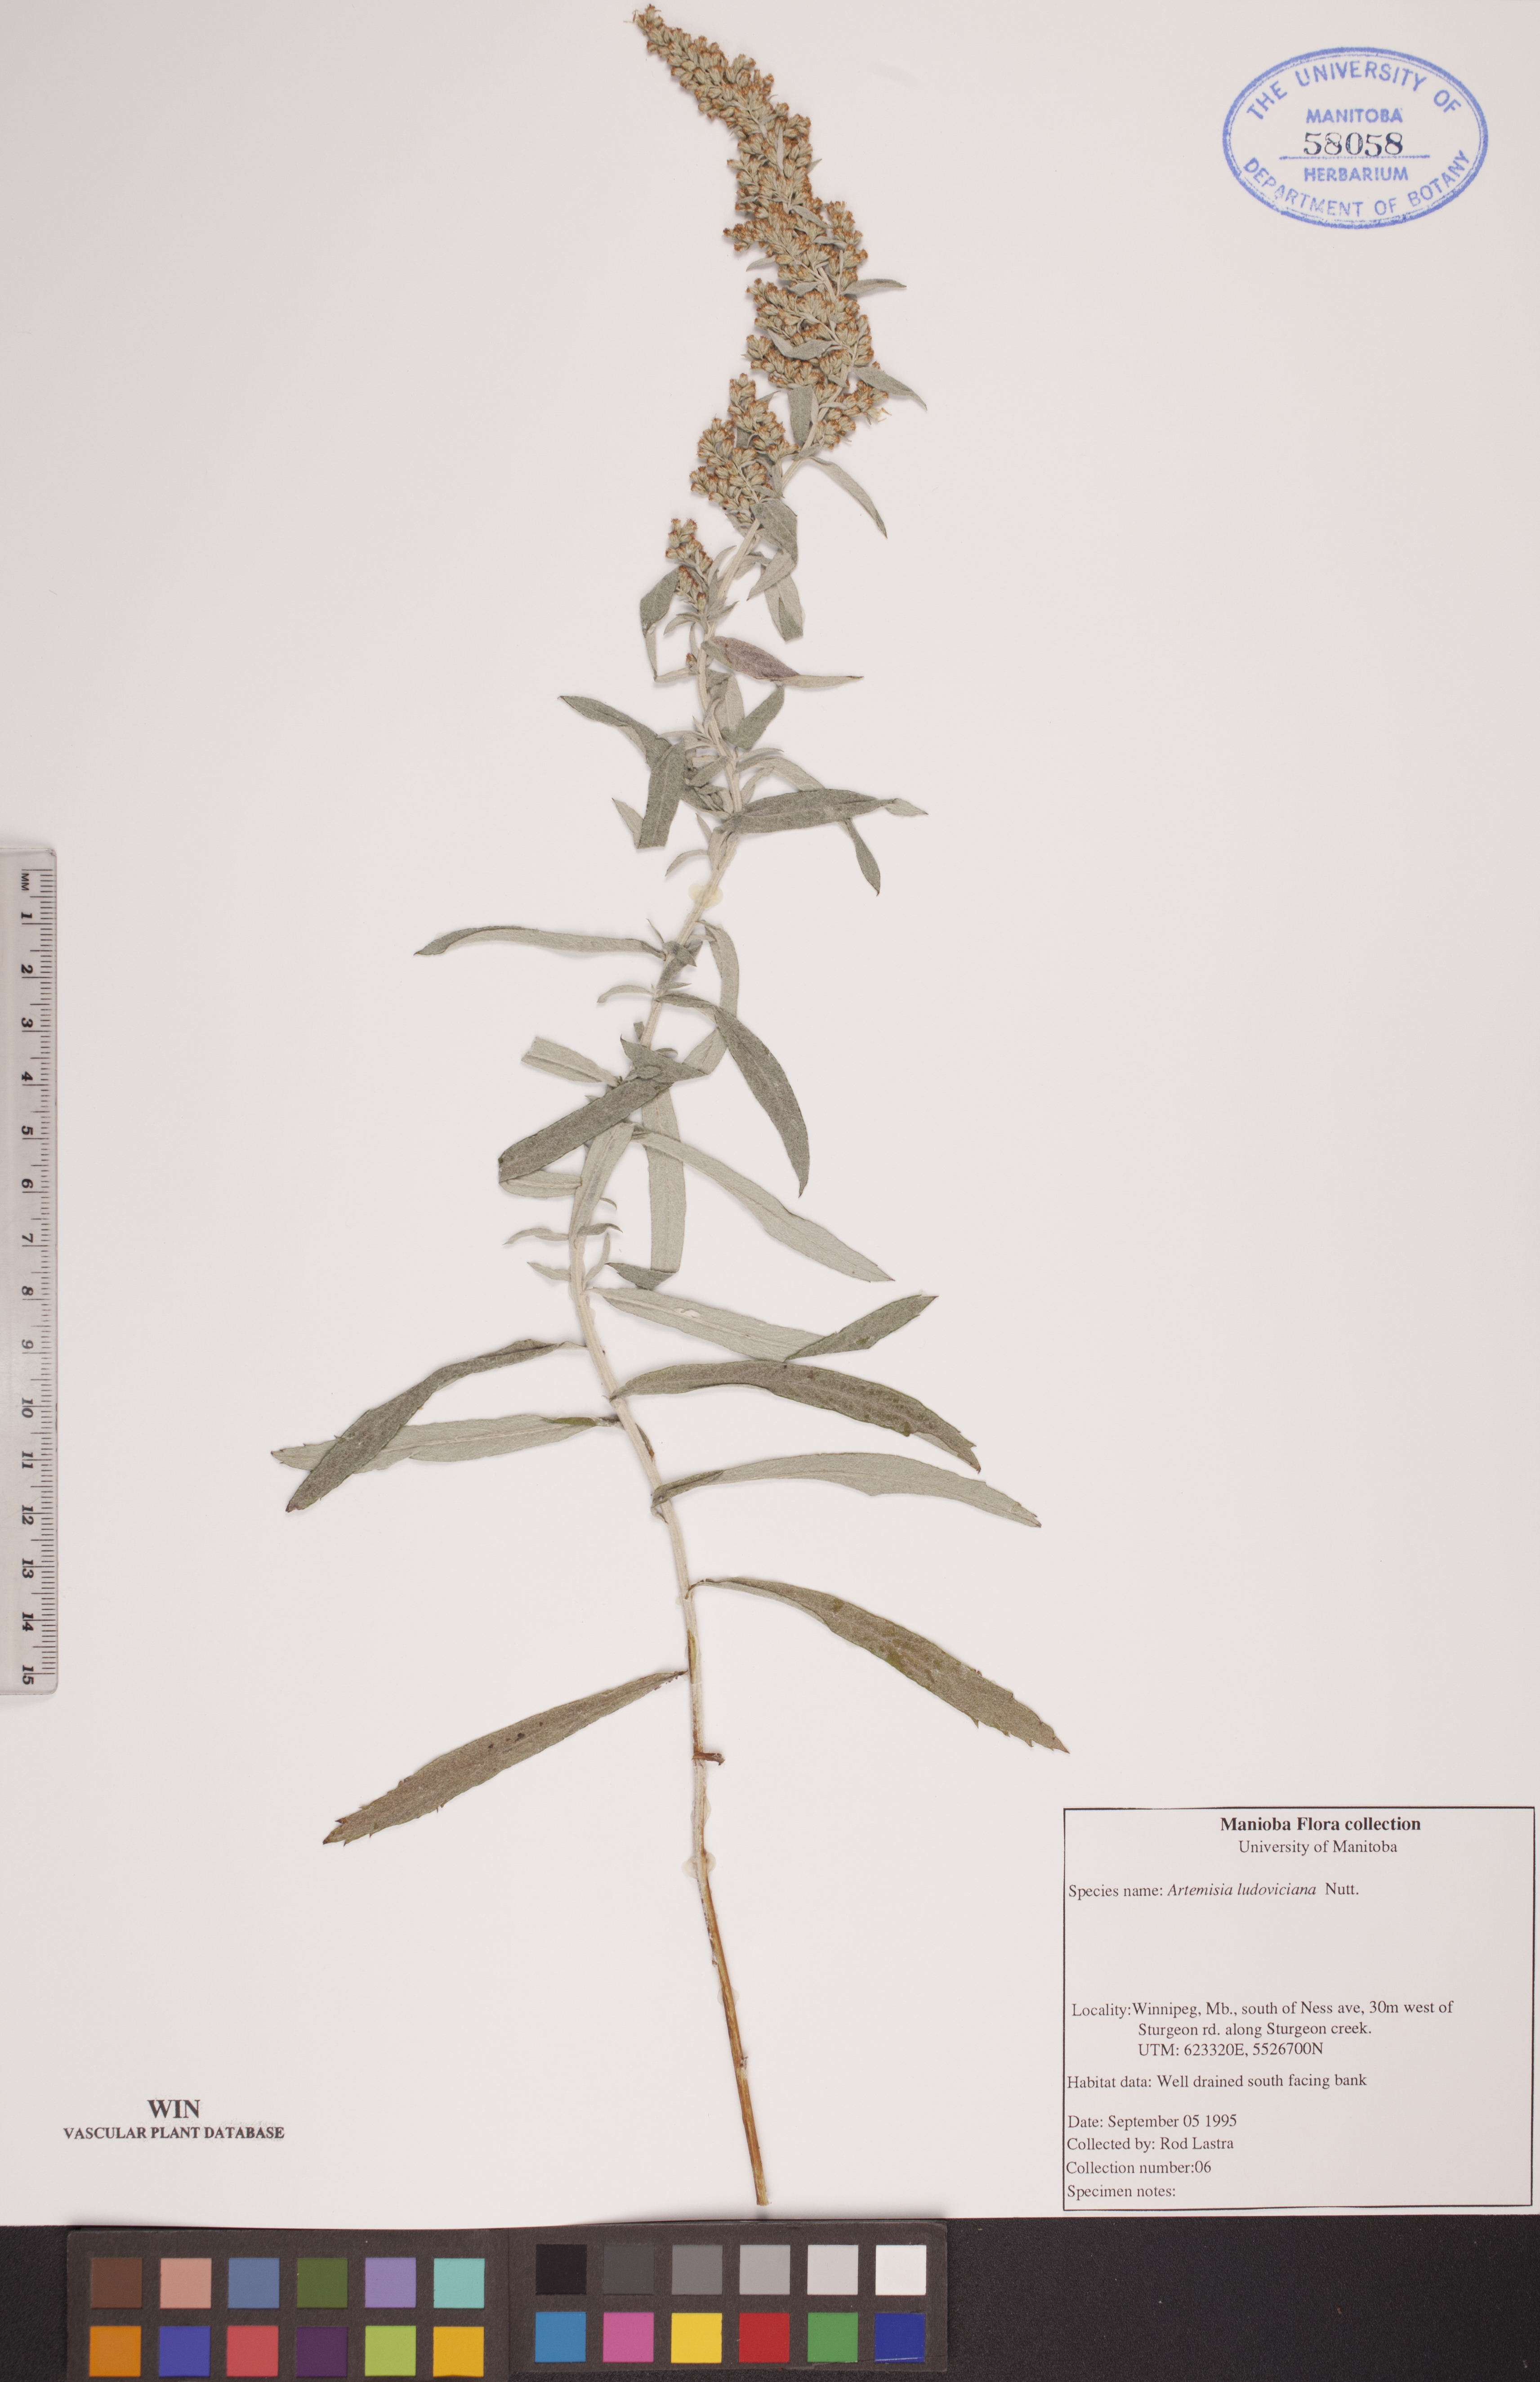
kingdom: Plantae
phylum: Tracheophyta
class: Magnoliopsida
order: Asterales
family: Asteraceae
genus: Artemisia
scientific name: Artemisia ludoviciana
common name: Western mugwort
